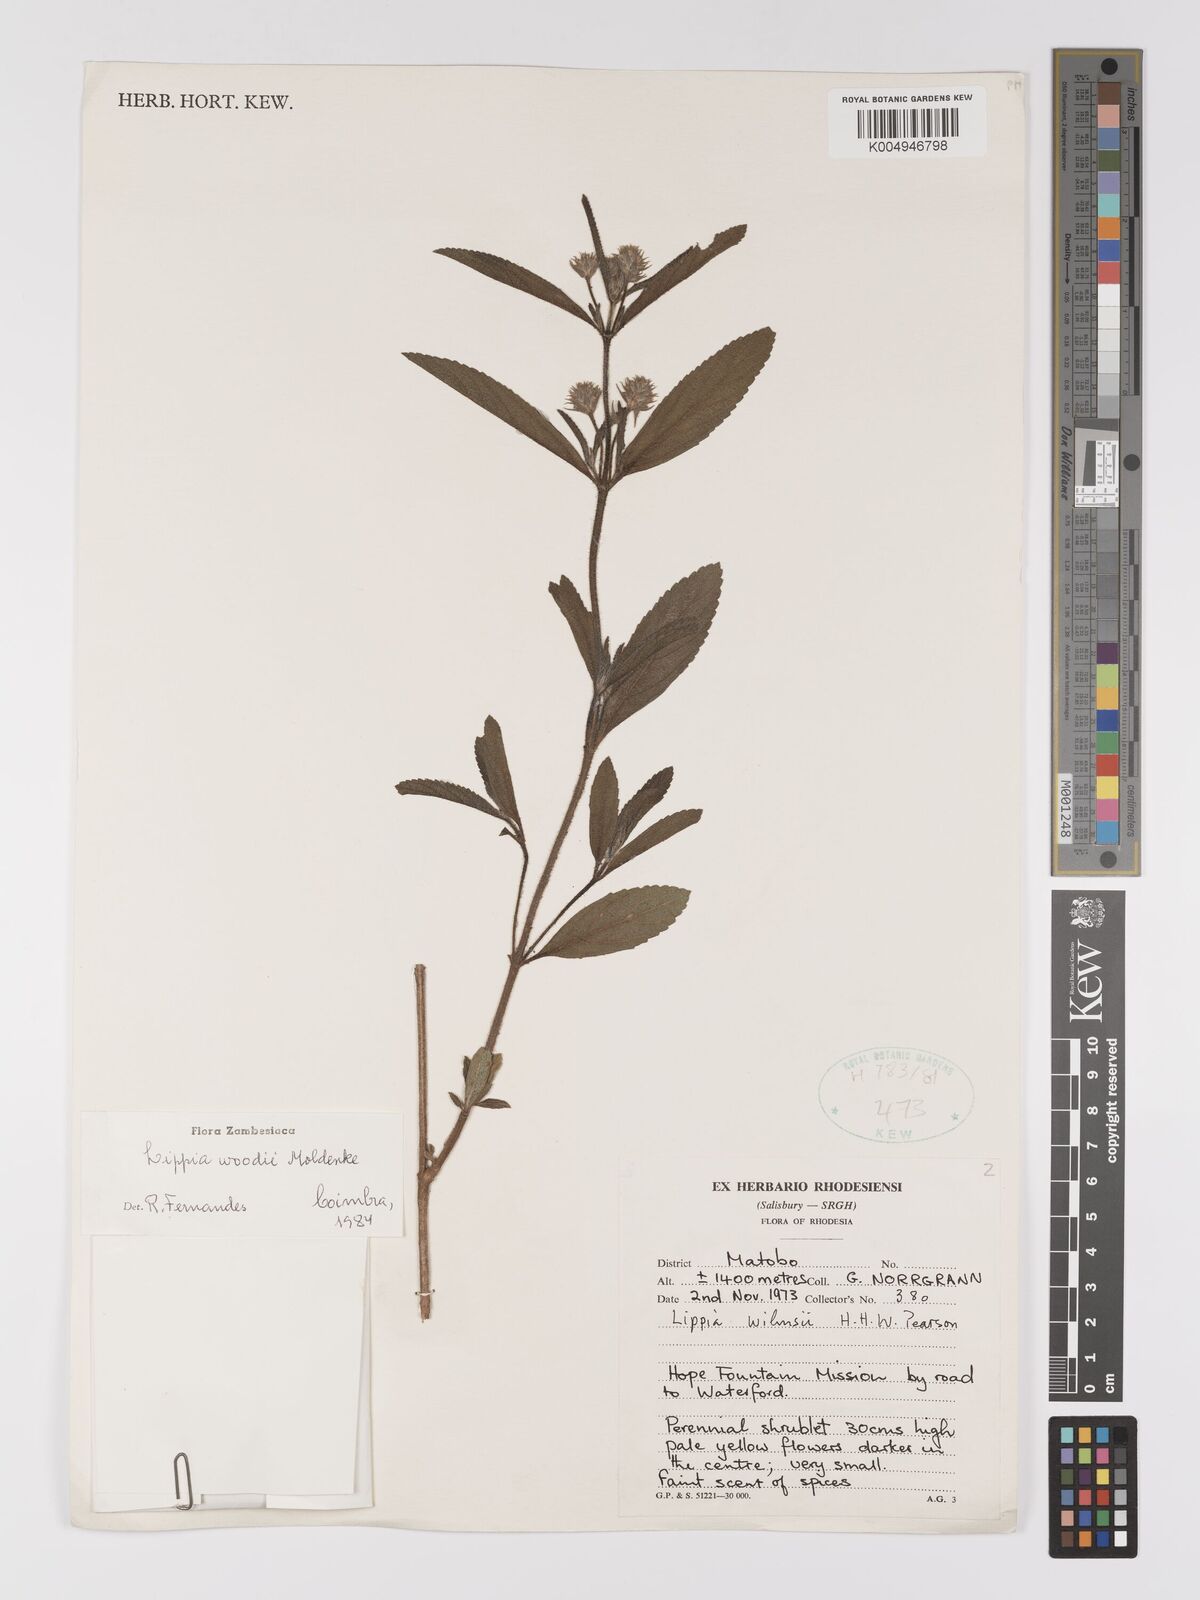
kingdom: Plantae
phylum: Tracheophyta
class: Magnoliopsida
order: Lamiales
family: Verbenaceae
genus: Lippia
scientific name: Lippia woodii
